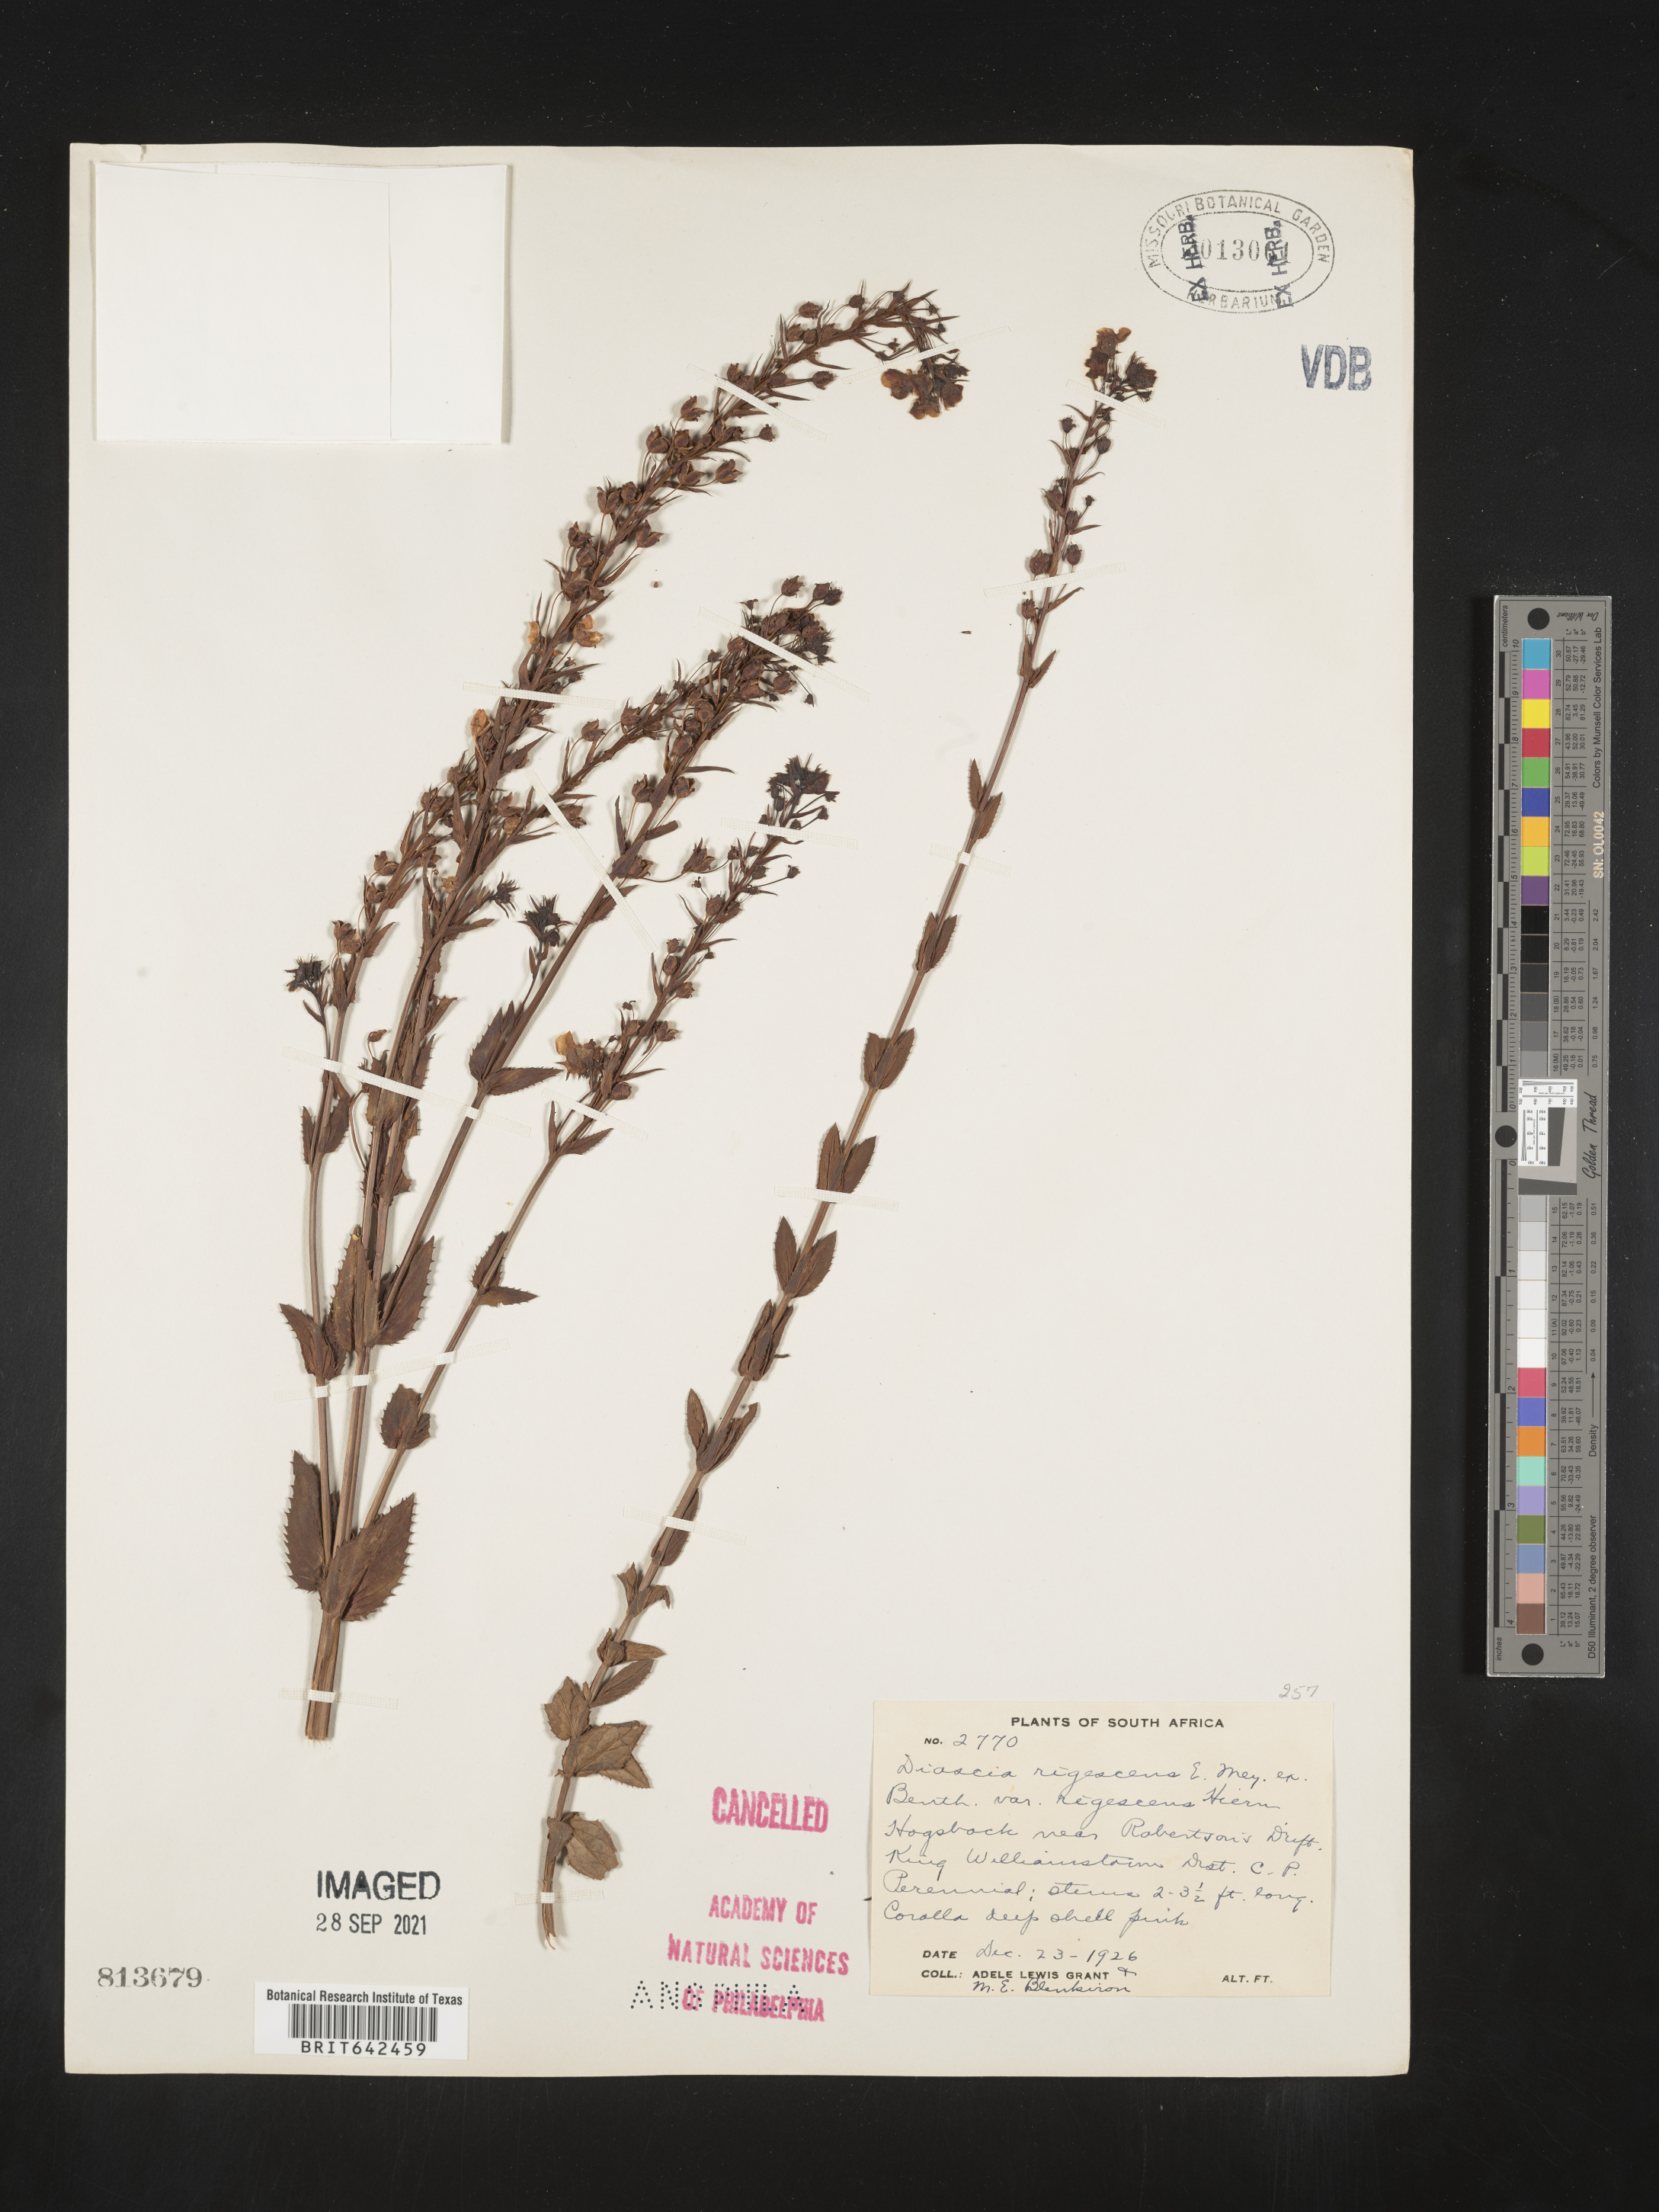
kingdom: Plantae
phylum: Tracheophyta
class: Magnoliopsida
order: Lamiales
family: Scrophulariaceae
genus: Diascia
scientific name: Diascia
